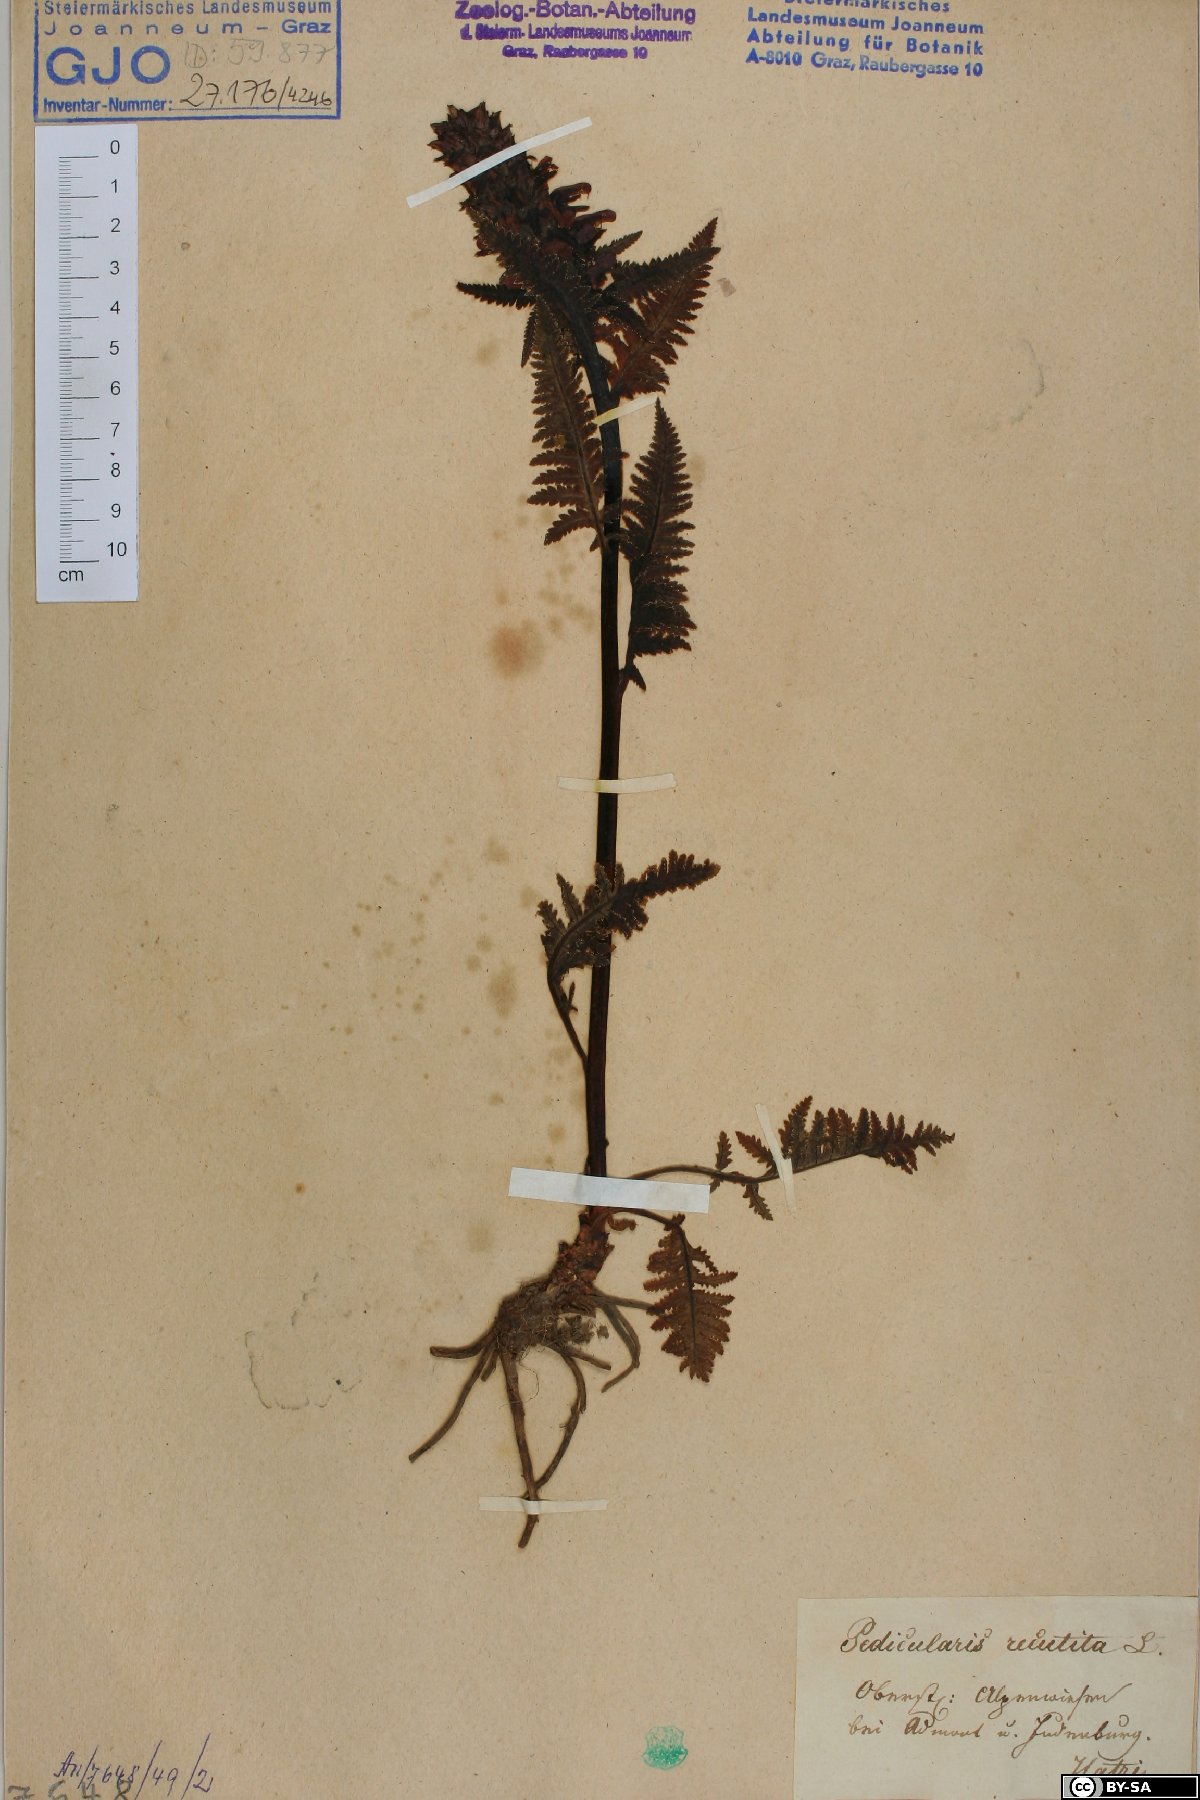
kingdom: Plantae
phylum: Tracheophyta
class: Magnoliopsida
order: Lamiales
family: Orobanchaceae
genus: Pedicularis
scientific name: Pedicularis recutita
